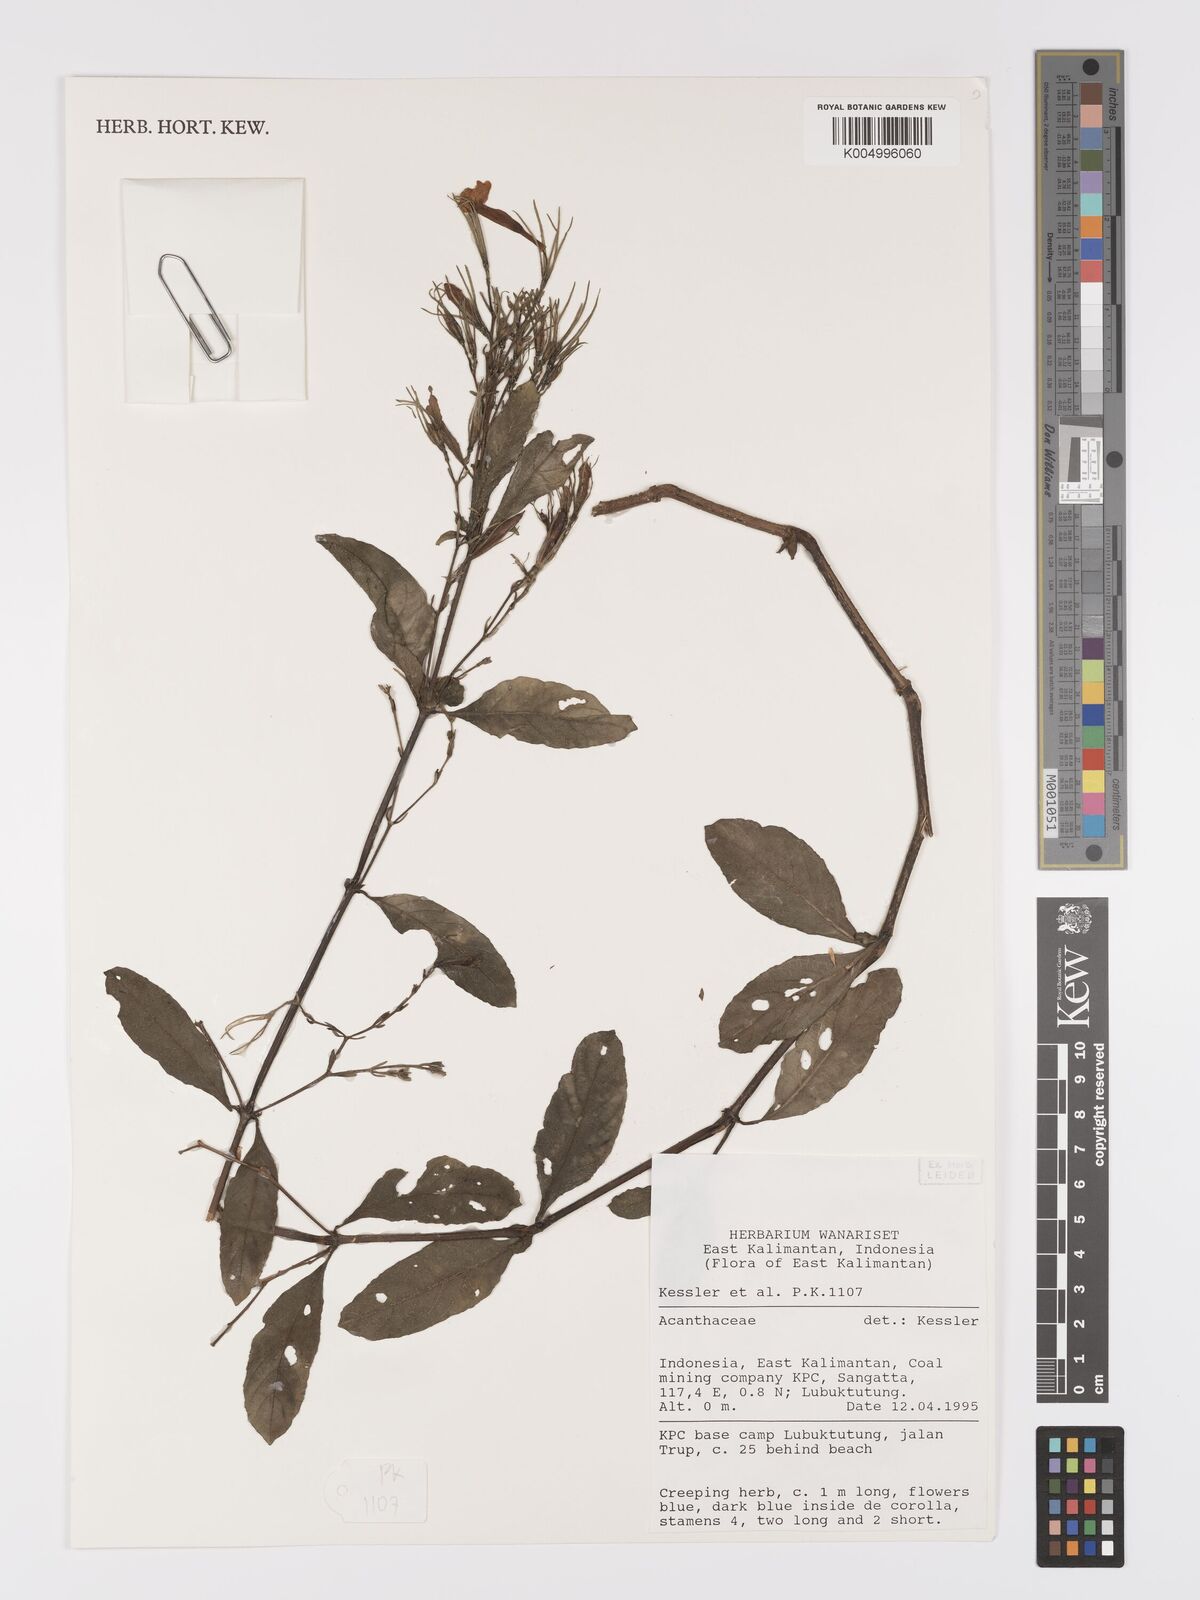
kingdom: Plantae
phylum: Tracheophyta
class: Magnoliopsida
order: Lamiales
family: Acanthaceae
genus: Ruellia
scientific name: Ruellia tuberosa
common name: Devil's bit
